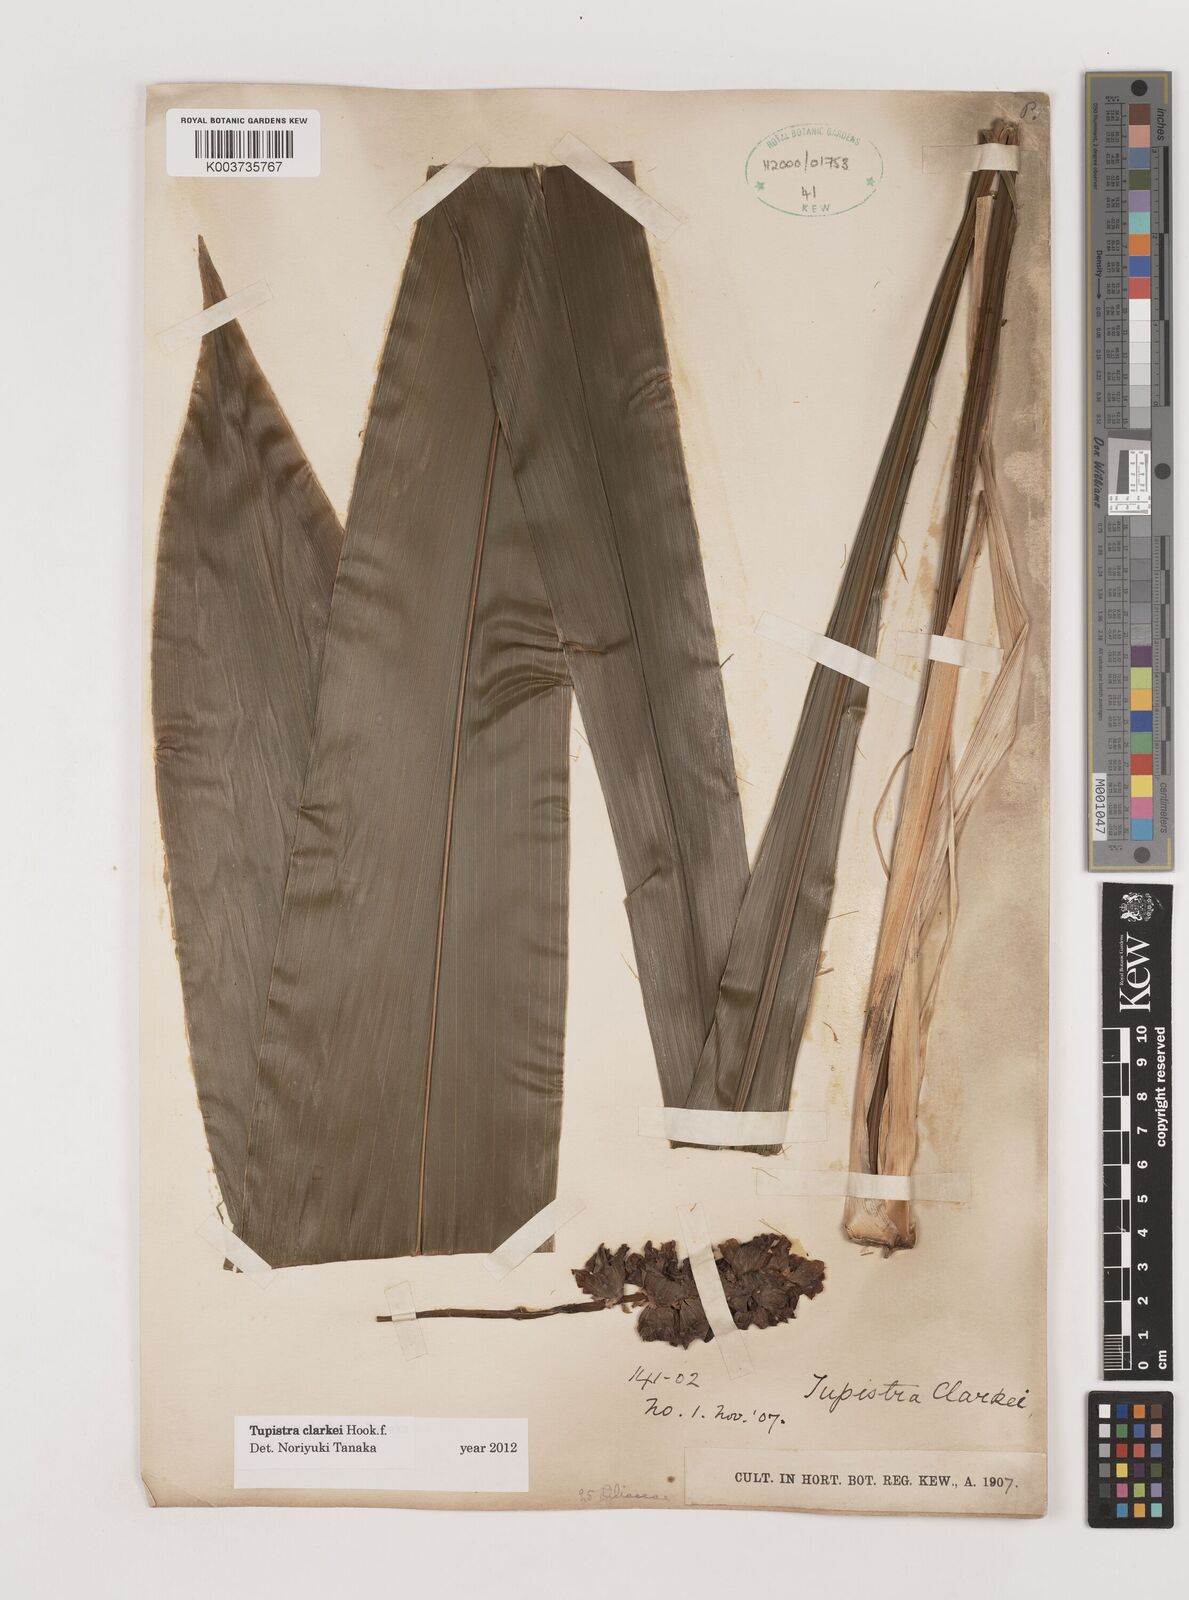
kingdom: Plantae
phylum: Tracheophyta
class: Liliopsida
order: Asparagales
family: Asparagaceae
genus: Tupistra
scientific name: Tupistra clarkei
